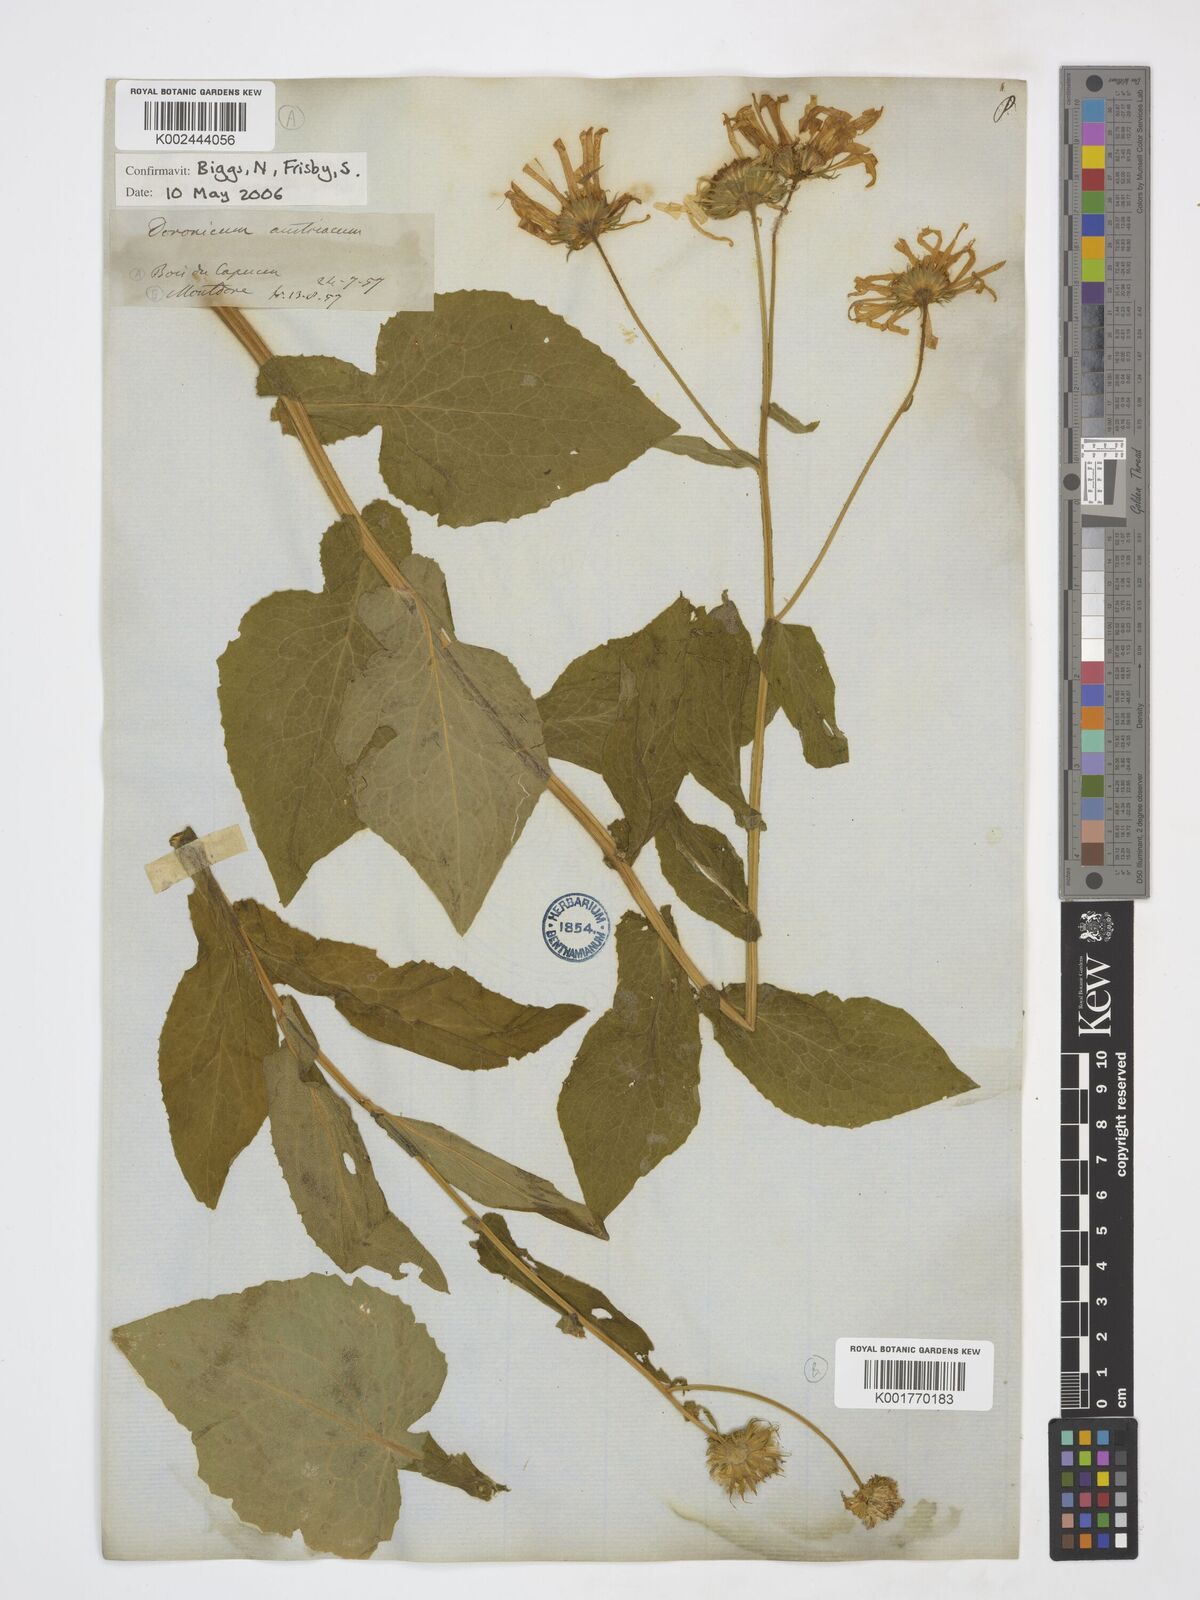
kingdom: Plantae
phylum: Tracheophyta
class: Magnoliopsida
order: Asterales
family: Asteraceae
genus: Doronicum
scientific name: Doronicum austriacum
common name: Austrian leopard's-bane
